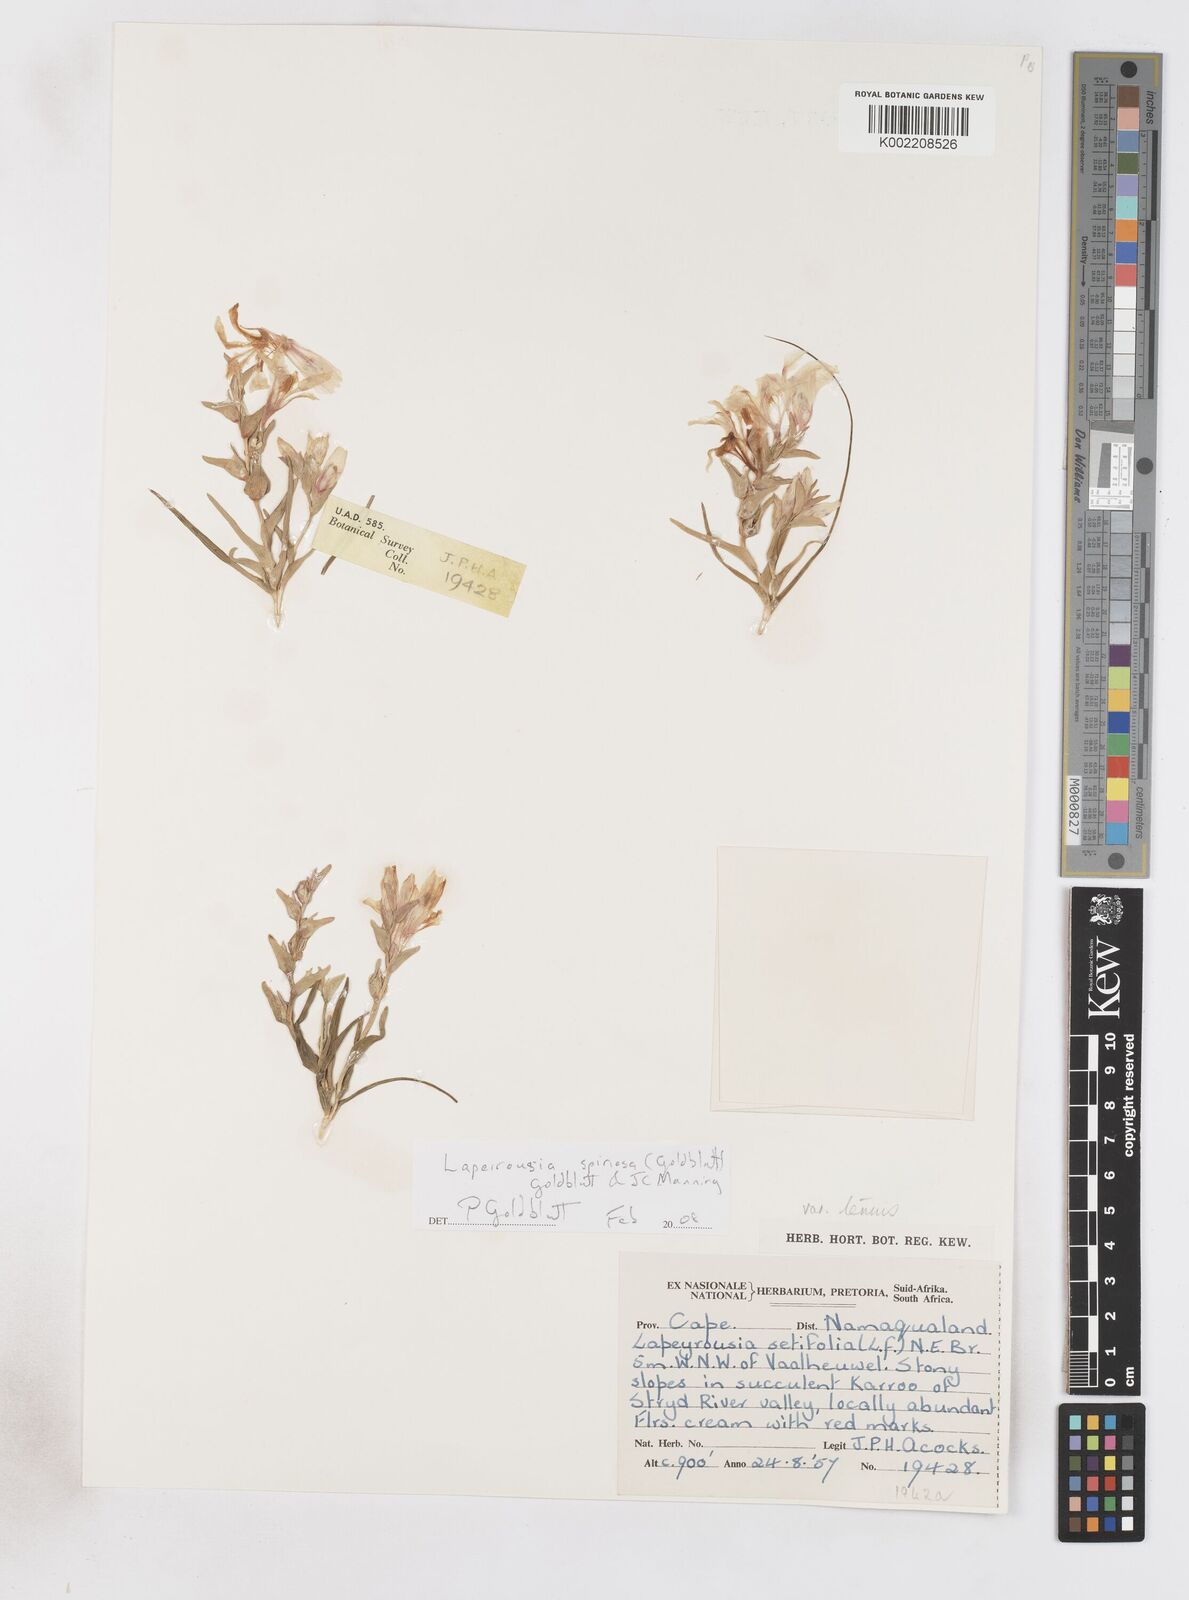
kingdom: Plantae
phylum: Tracheophyta
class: Liliopsida
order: Asparagales
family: Iridaceae
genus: Lapeirousia
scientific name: Lapeirousia spinosa
